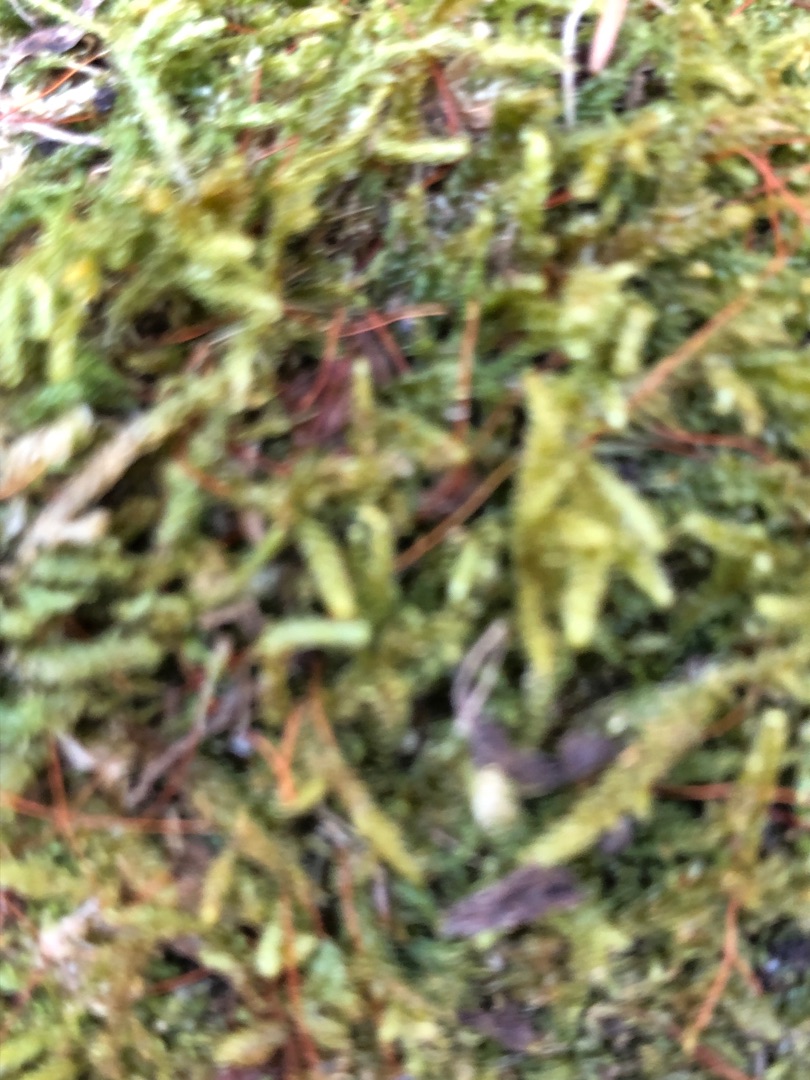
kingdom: Plantae
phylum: Bryophyta
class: Bryopsida
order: Hypnales
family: Hypnaceae
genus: Hypnum
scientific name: Hypnum cupressiforme
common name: Almindelig cypresmos
